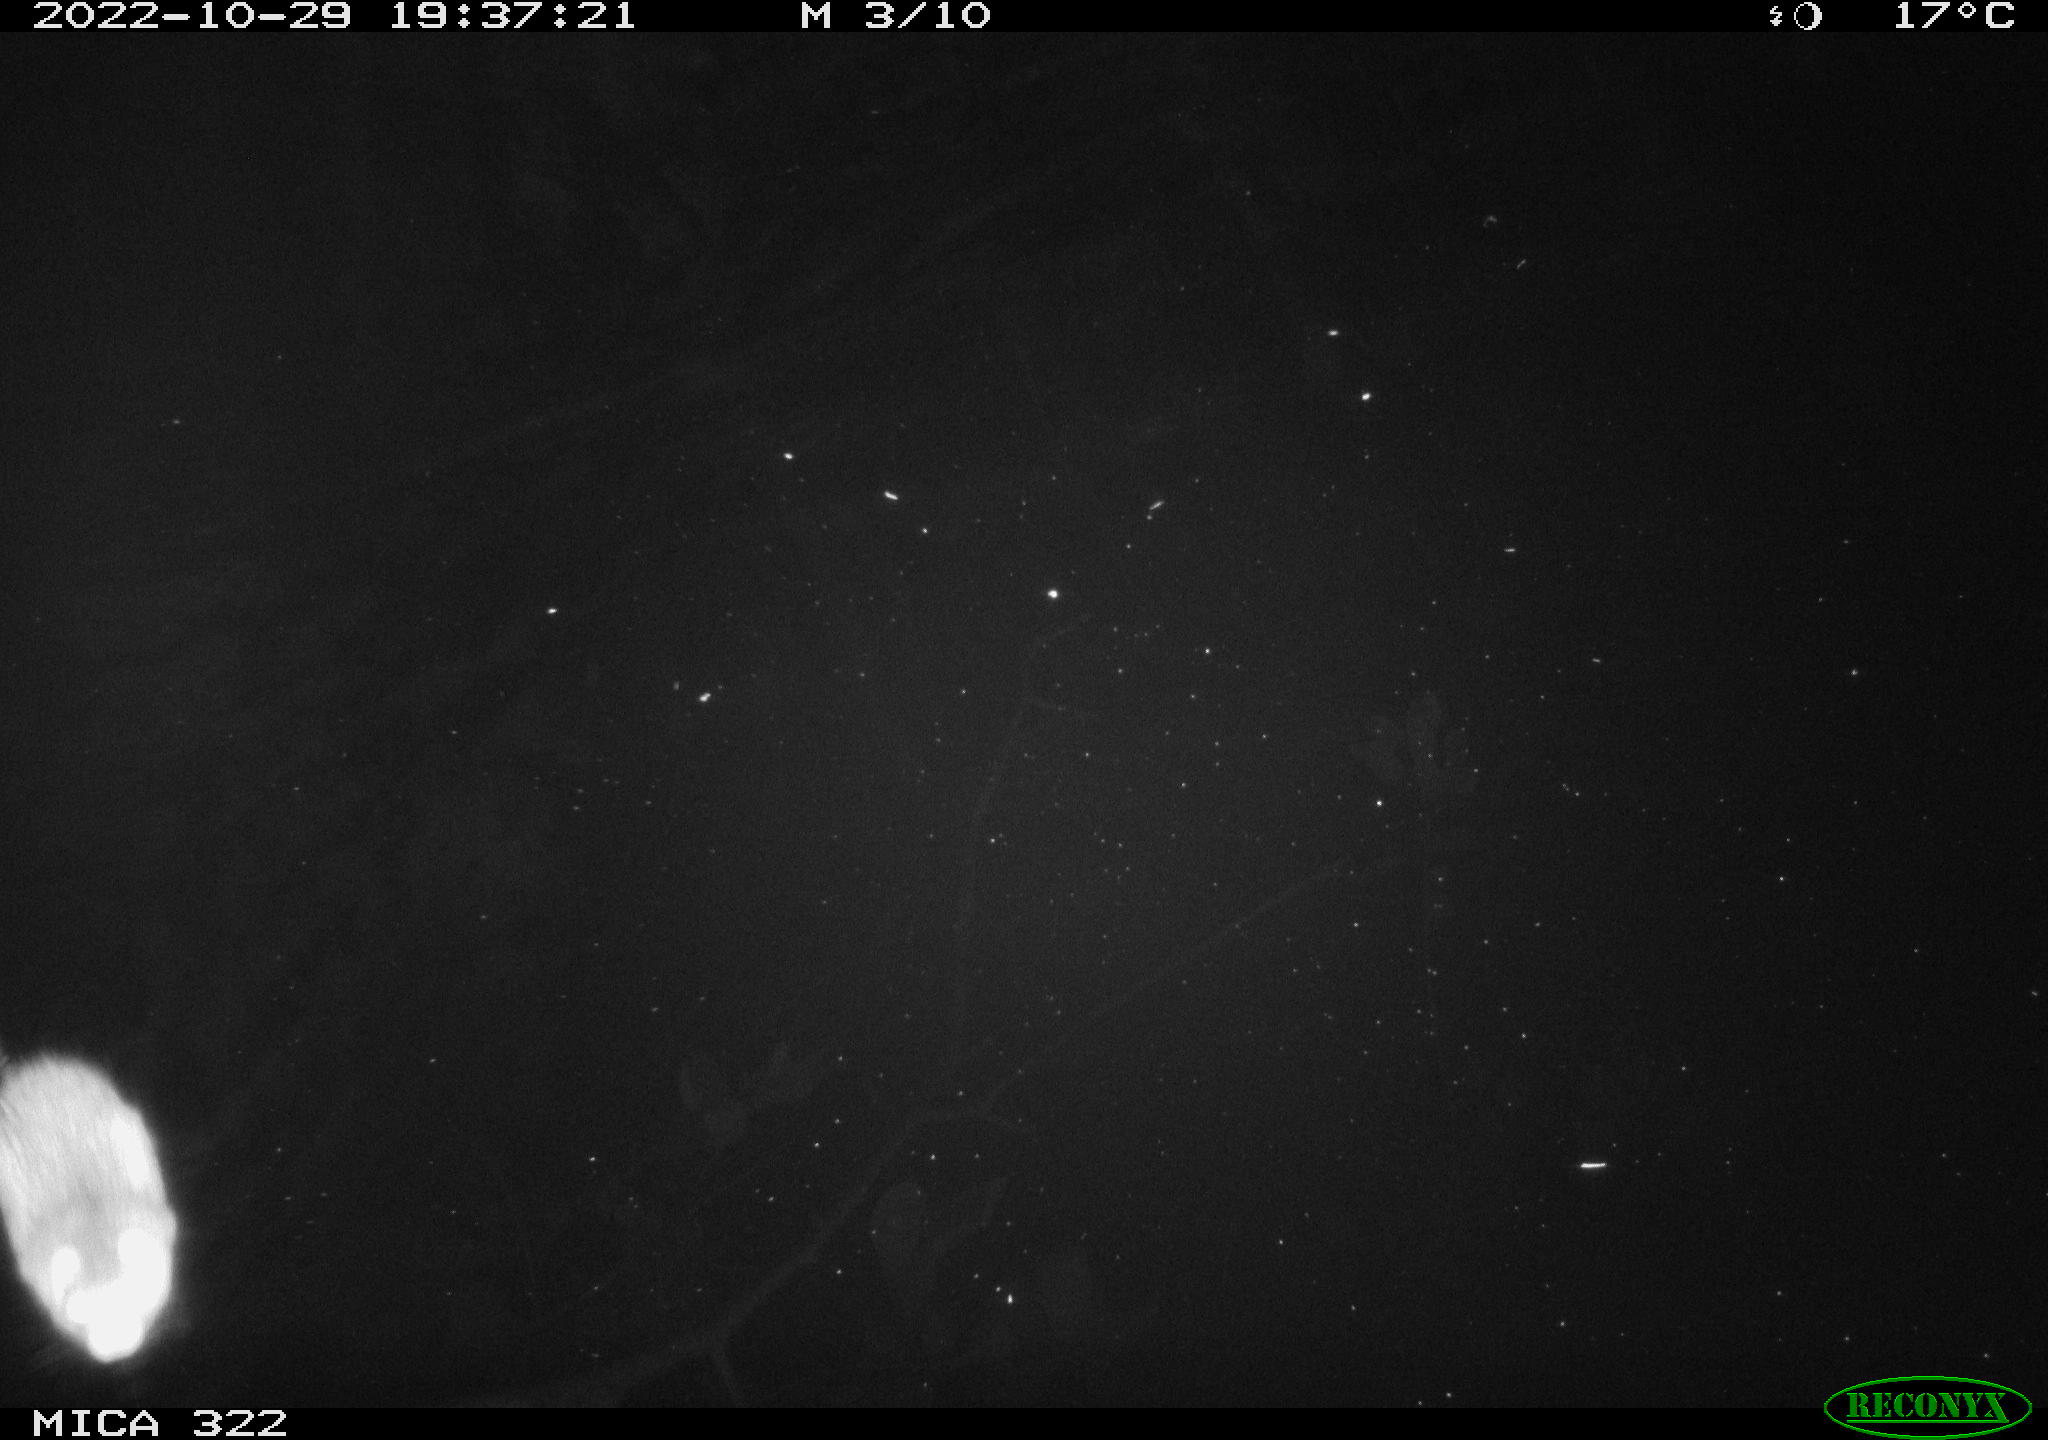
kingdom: Animalia
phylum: Chordata
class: Mammalia
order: Rodentia
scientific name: Rodentia
